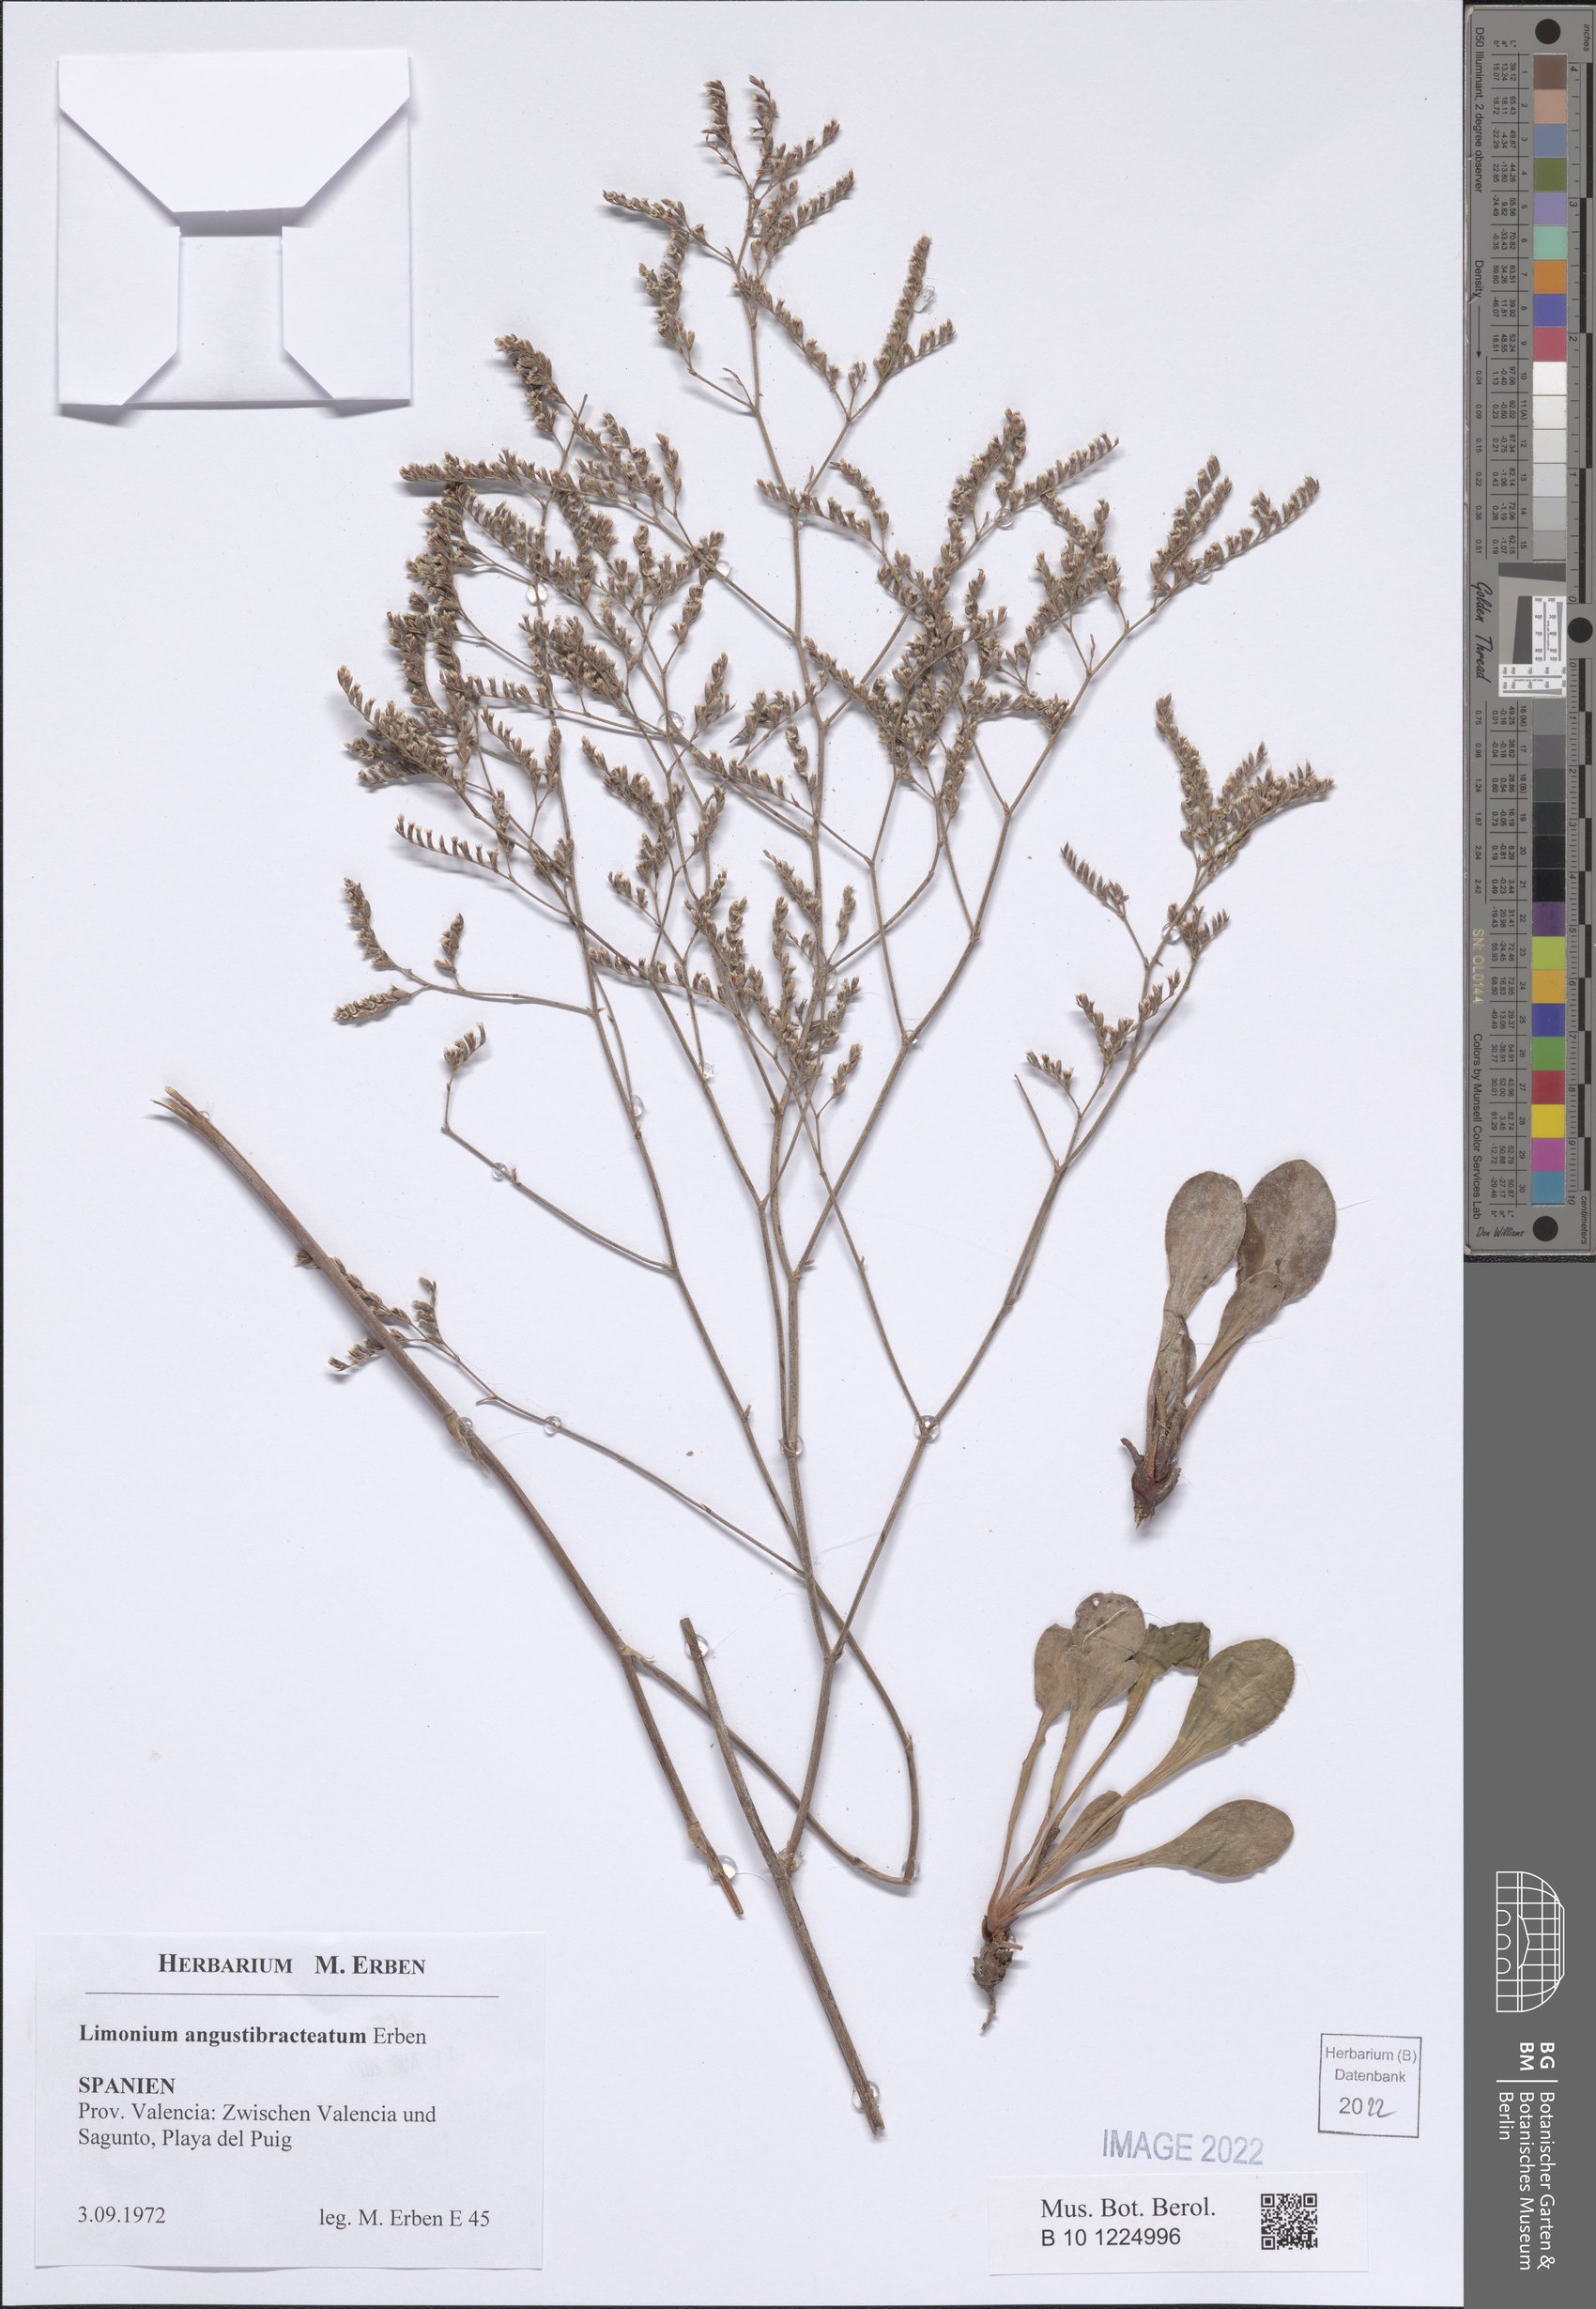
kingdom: Plantae
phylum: Tracheophyta
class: Magnoliopsida
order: Caryophyllales
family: Plumbaginaceae
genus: Limonium
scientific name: Limonium angustibracteatum
